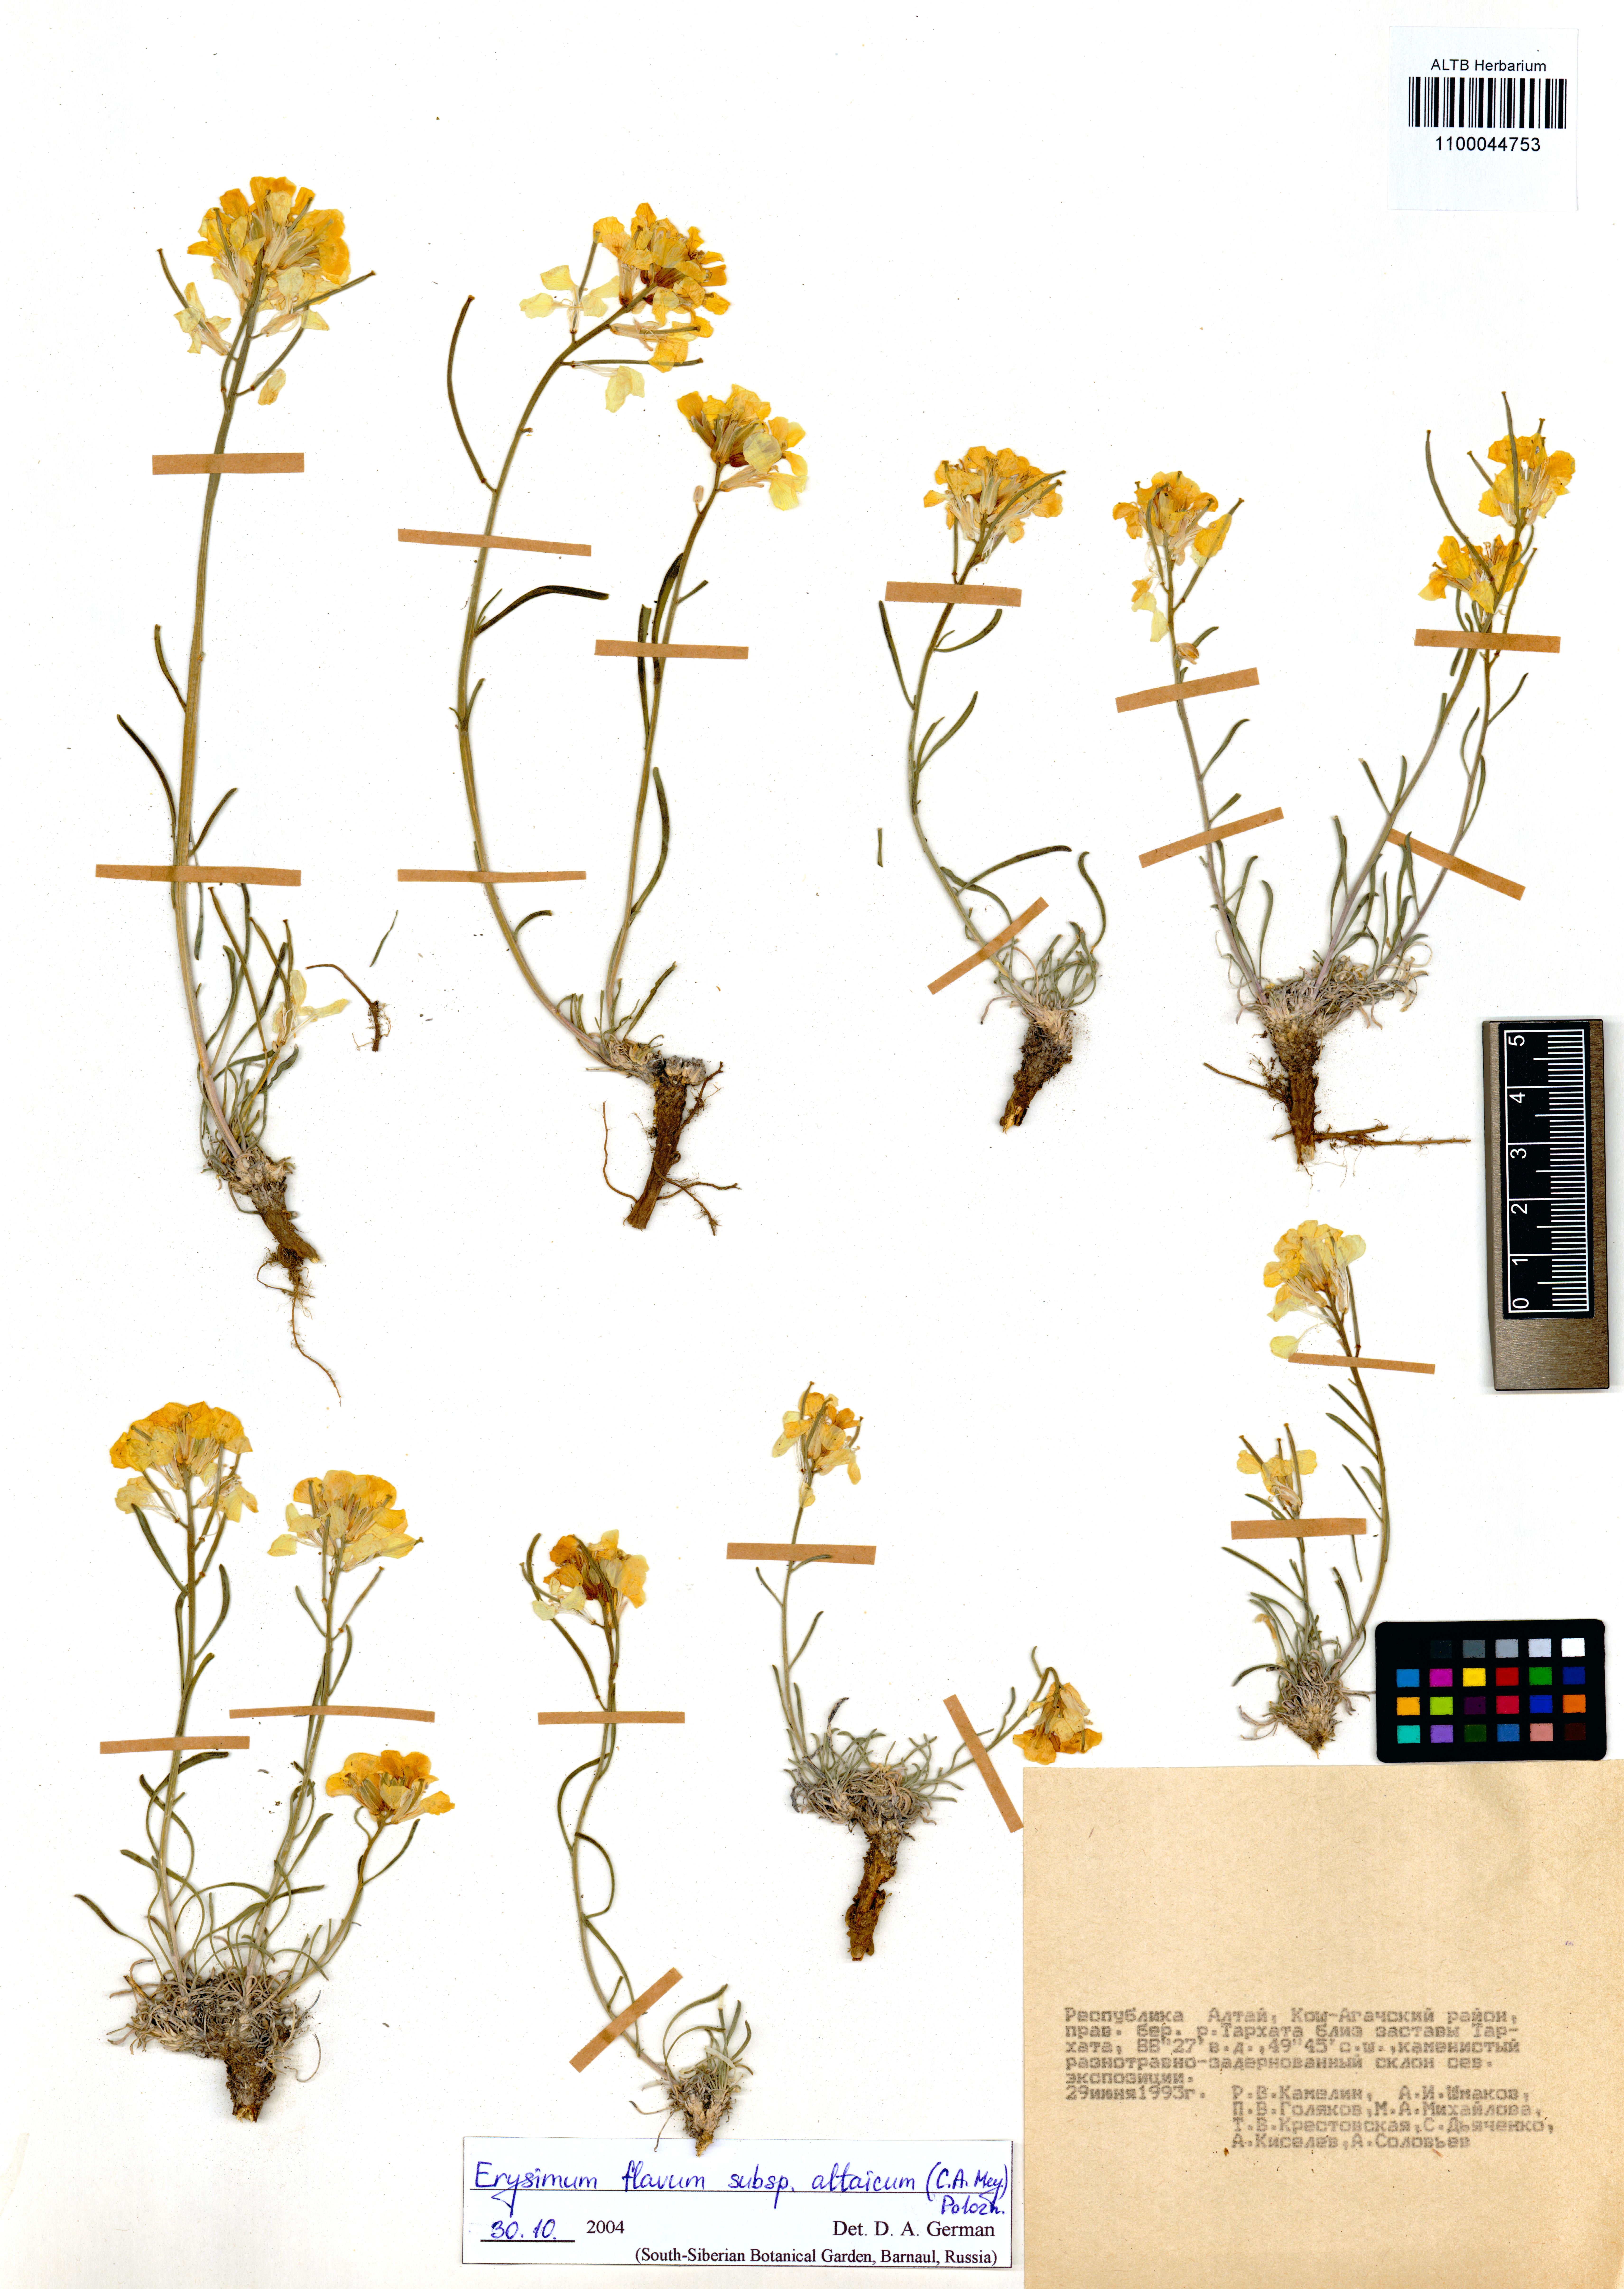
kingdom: Plantae
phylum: Tracheophyta
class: Magnoliopsida
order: Brassicales
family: Brassicaceae
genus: Erysimum
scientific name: Erysimum flavum
